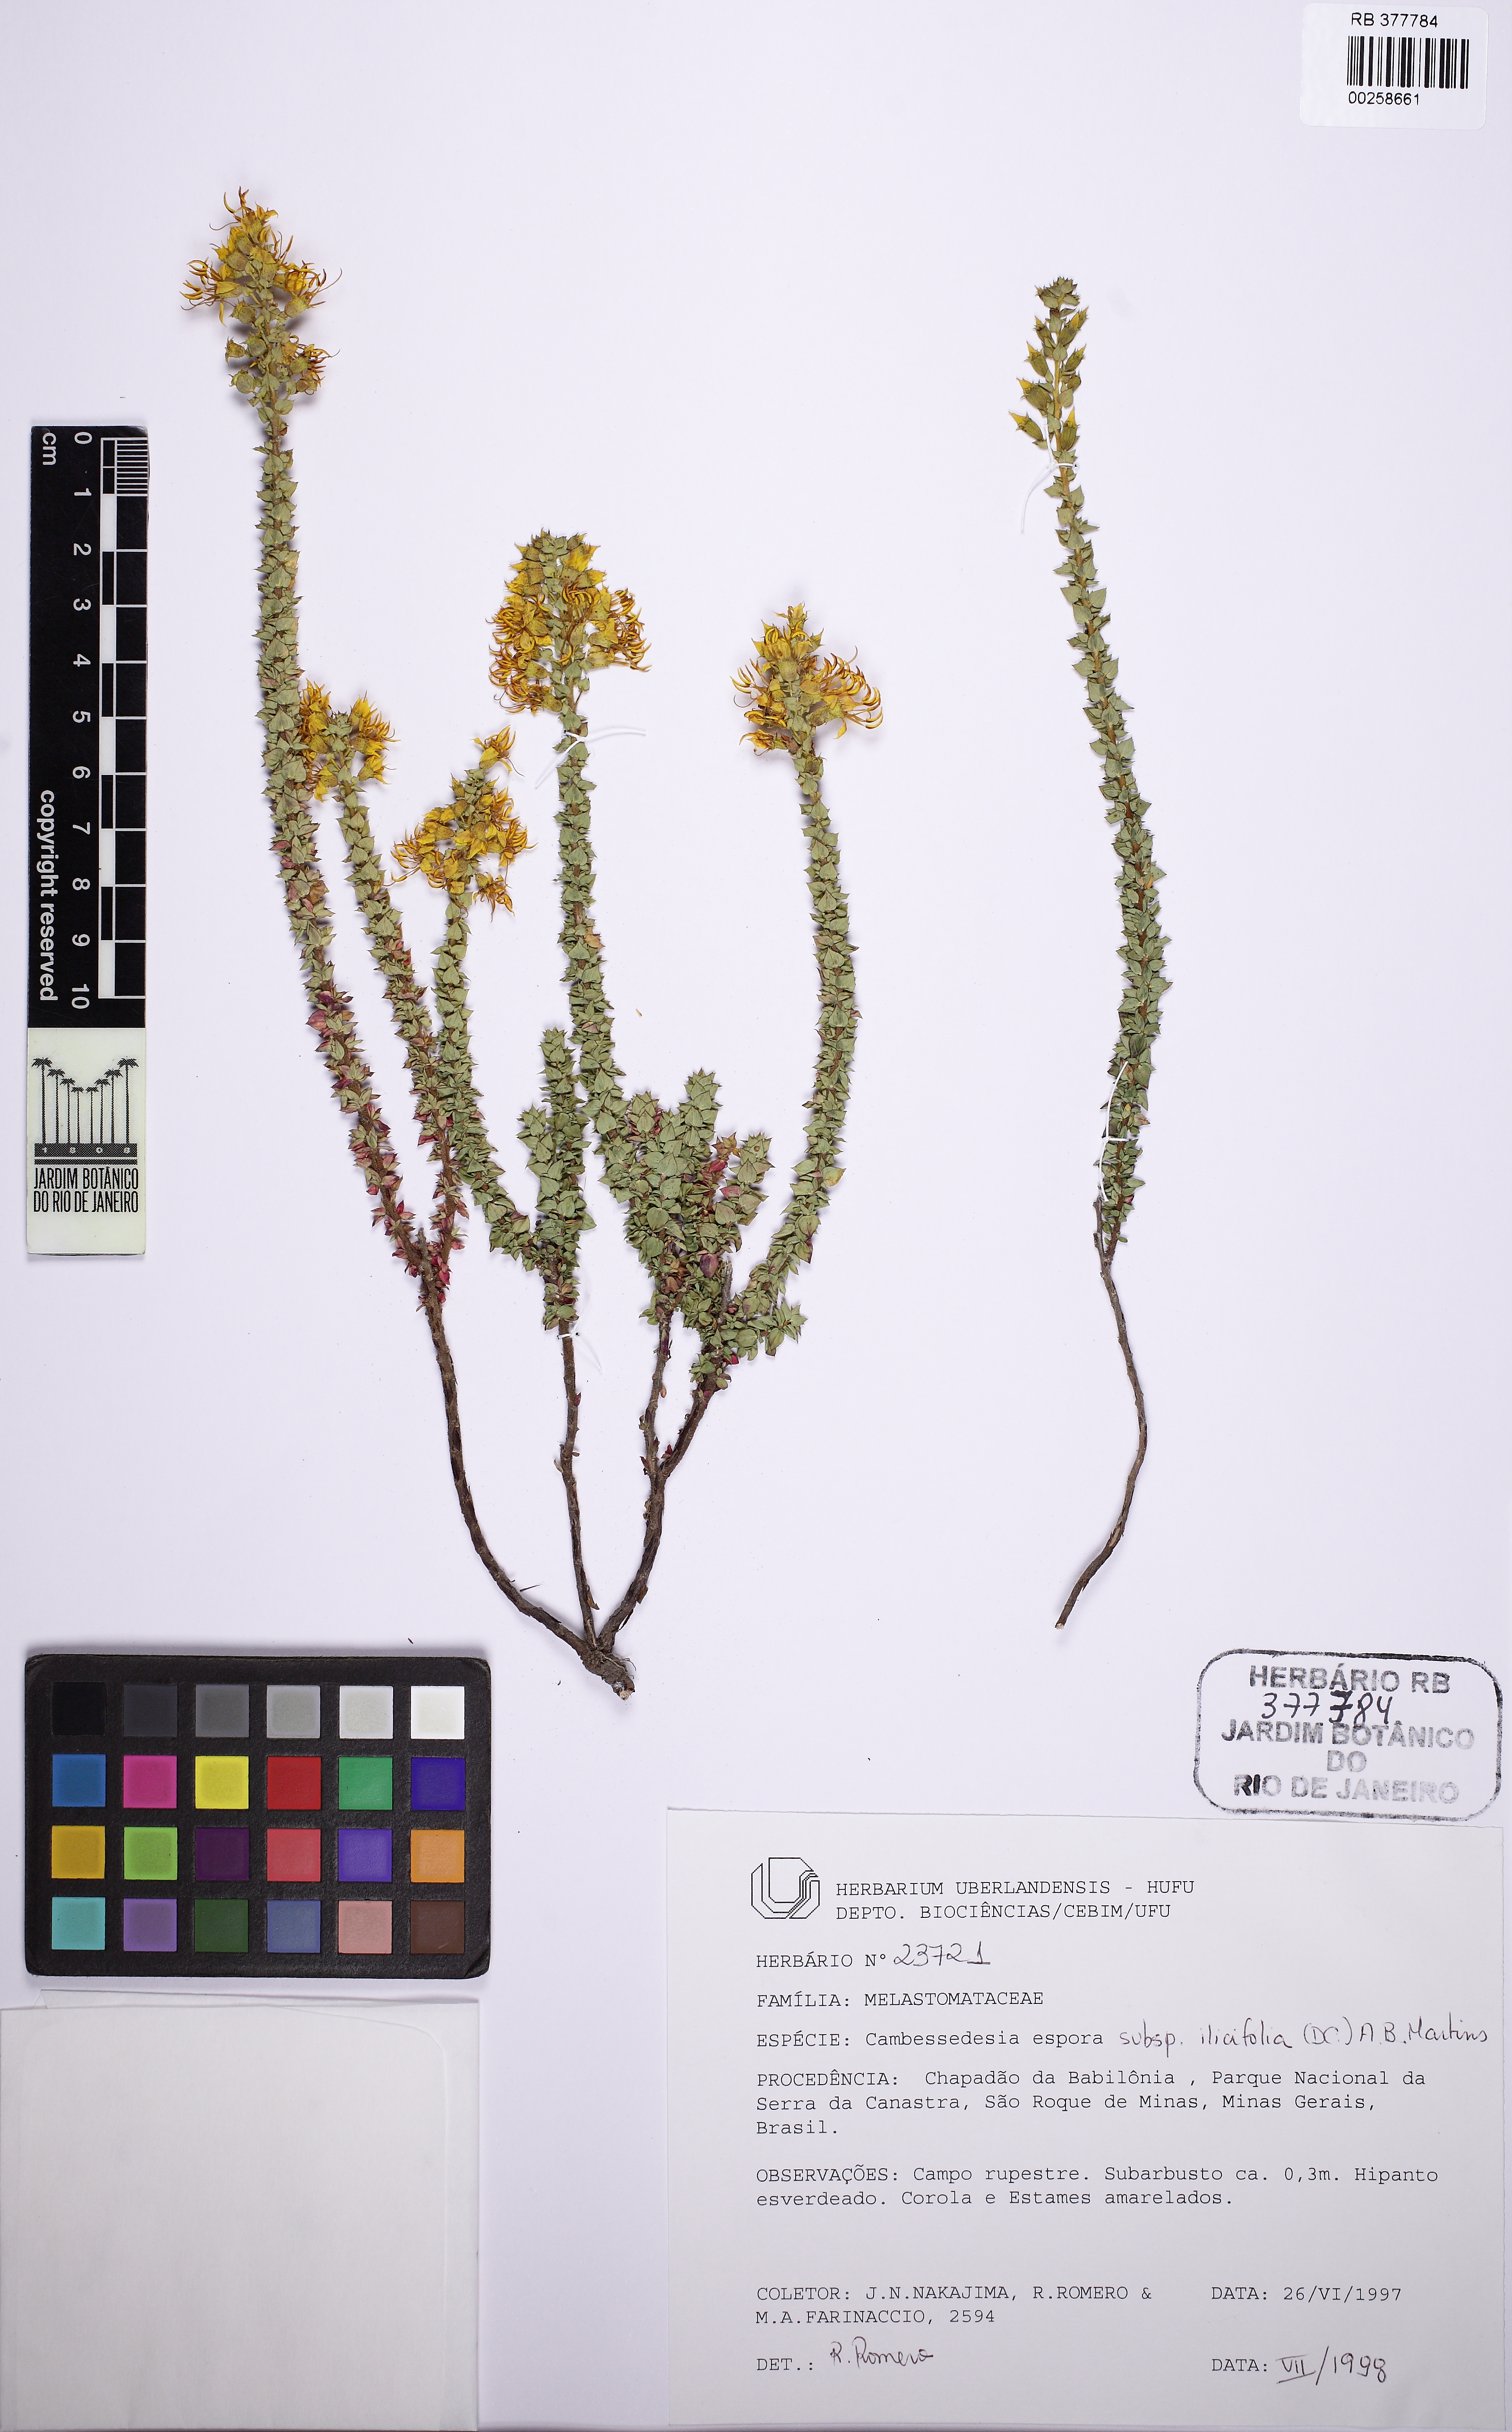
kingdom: Plantae
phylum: Tracheophyta
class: Magnoliopsida
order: Myrtales
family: Melastomataceae
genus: Cambessedesia
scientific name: Cambessedesia espora
